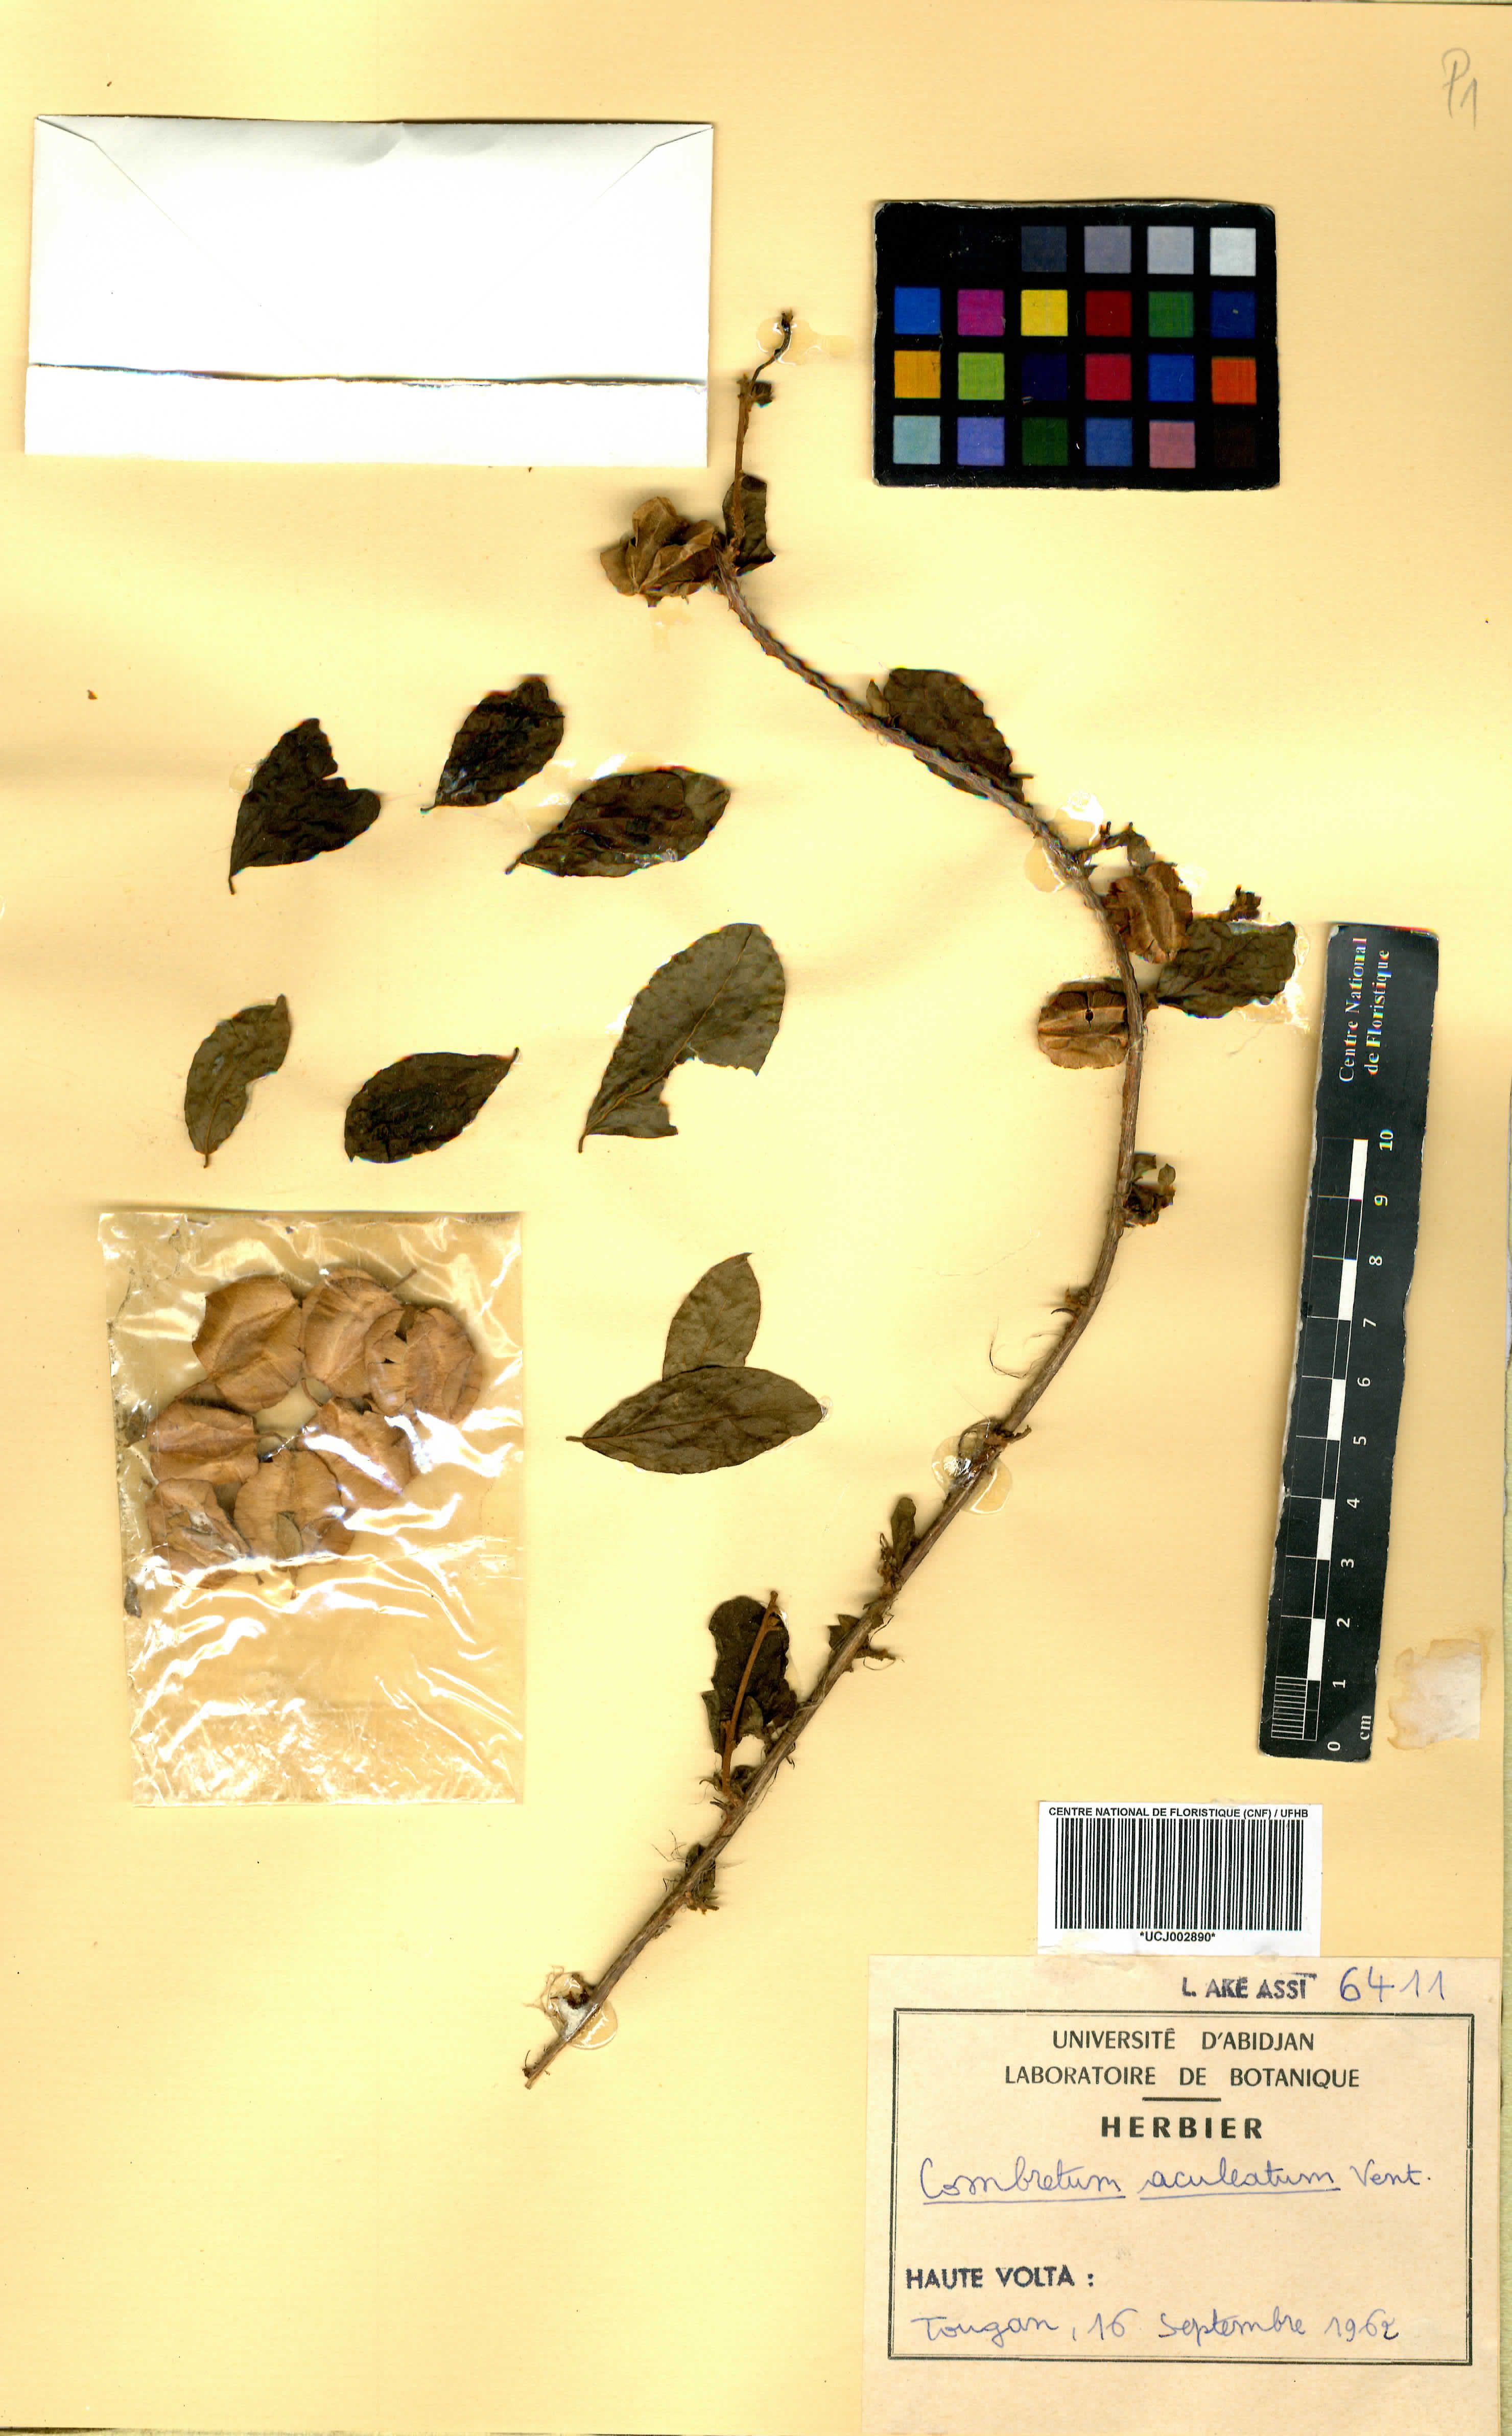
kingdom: Plantae
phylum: Tracheophyta
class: Magnoliopsida
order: Myrtales
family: Combretaceae
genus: Combretum
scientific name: Combretum aculeatum
